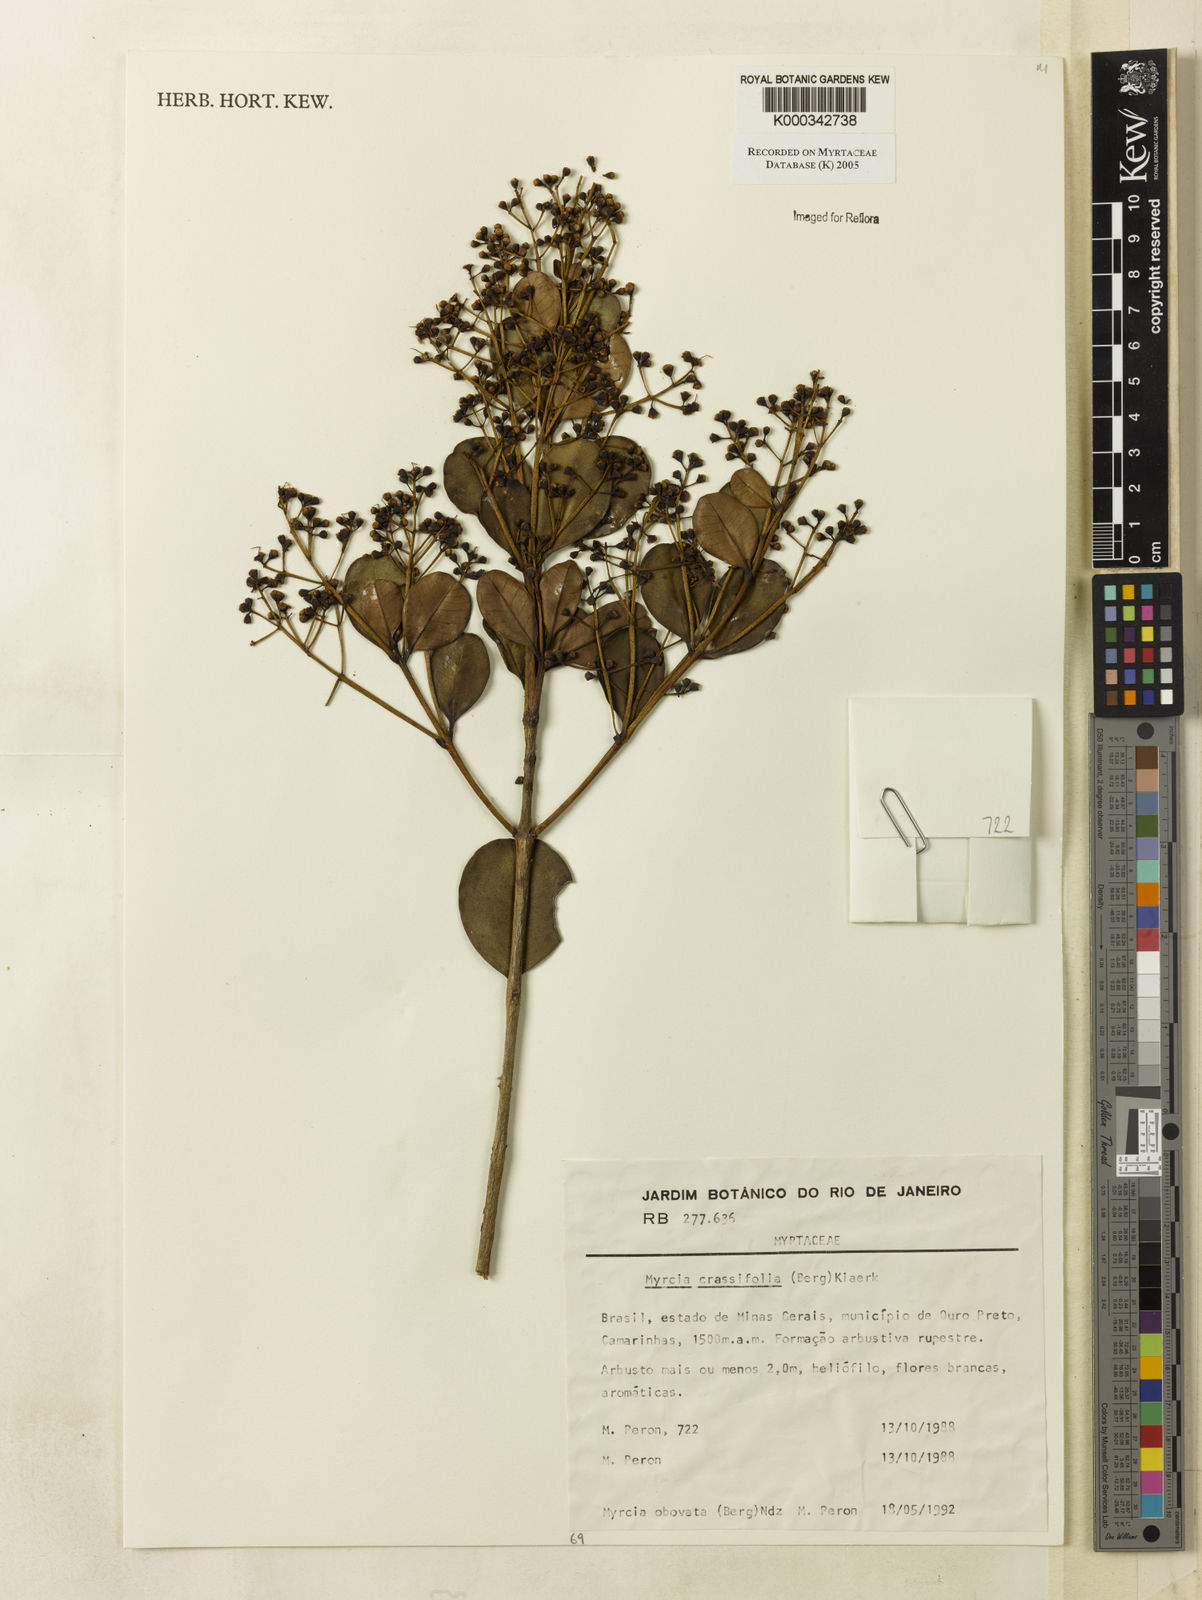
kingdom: Plantae
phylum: Tracheophyta
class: Magnoliopsida
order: Myrtales
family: Myrtaceae
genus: Myrcia
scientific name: Myrcia obovata
